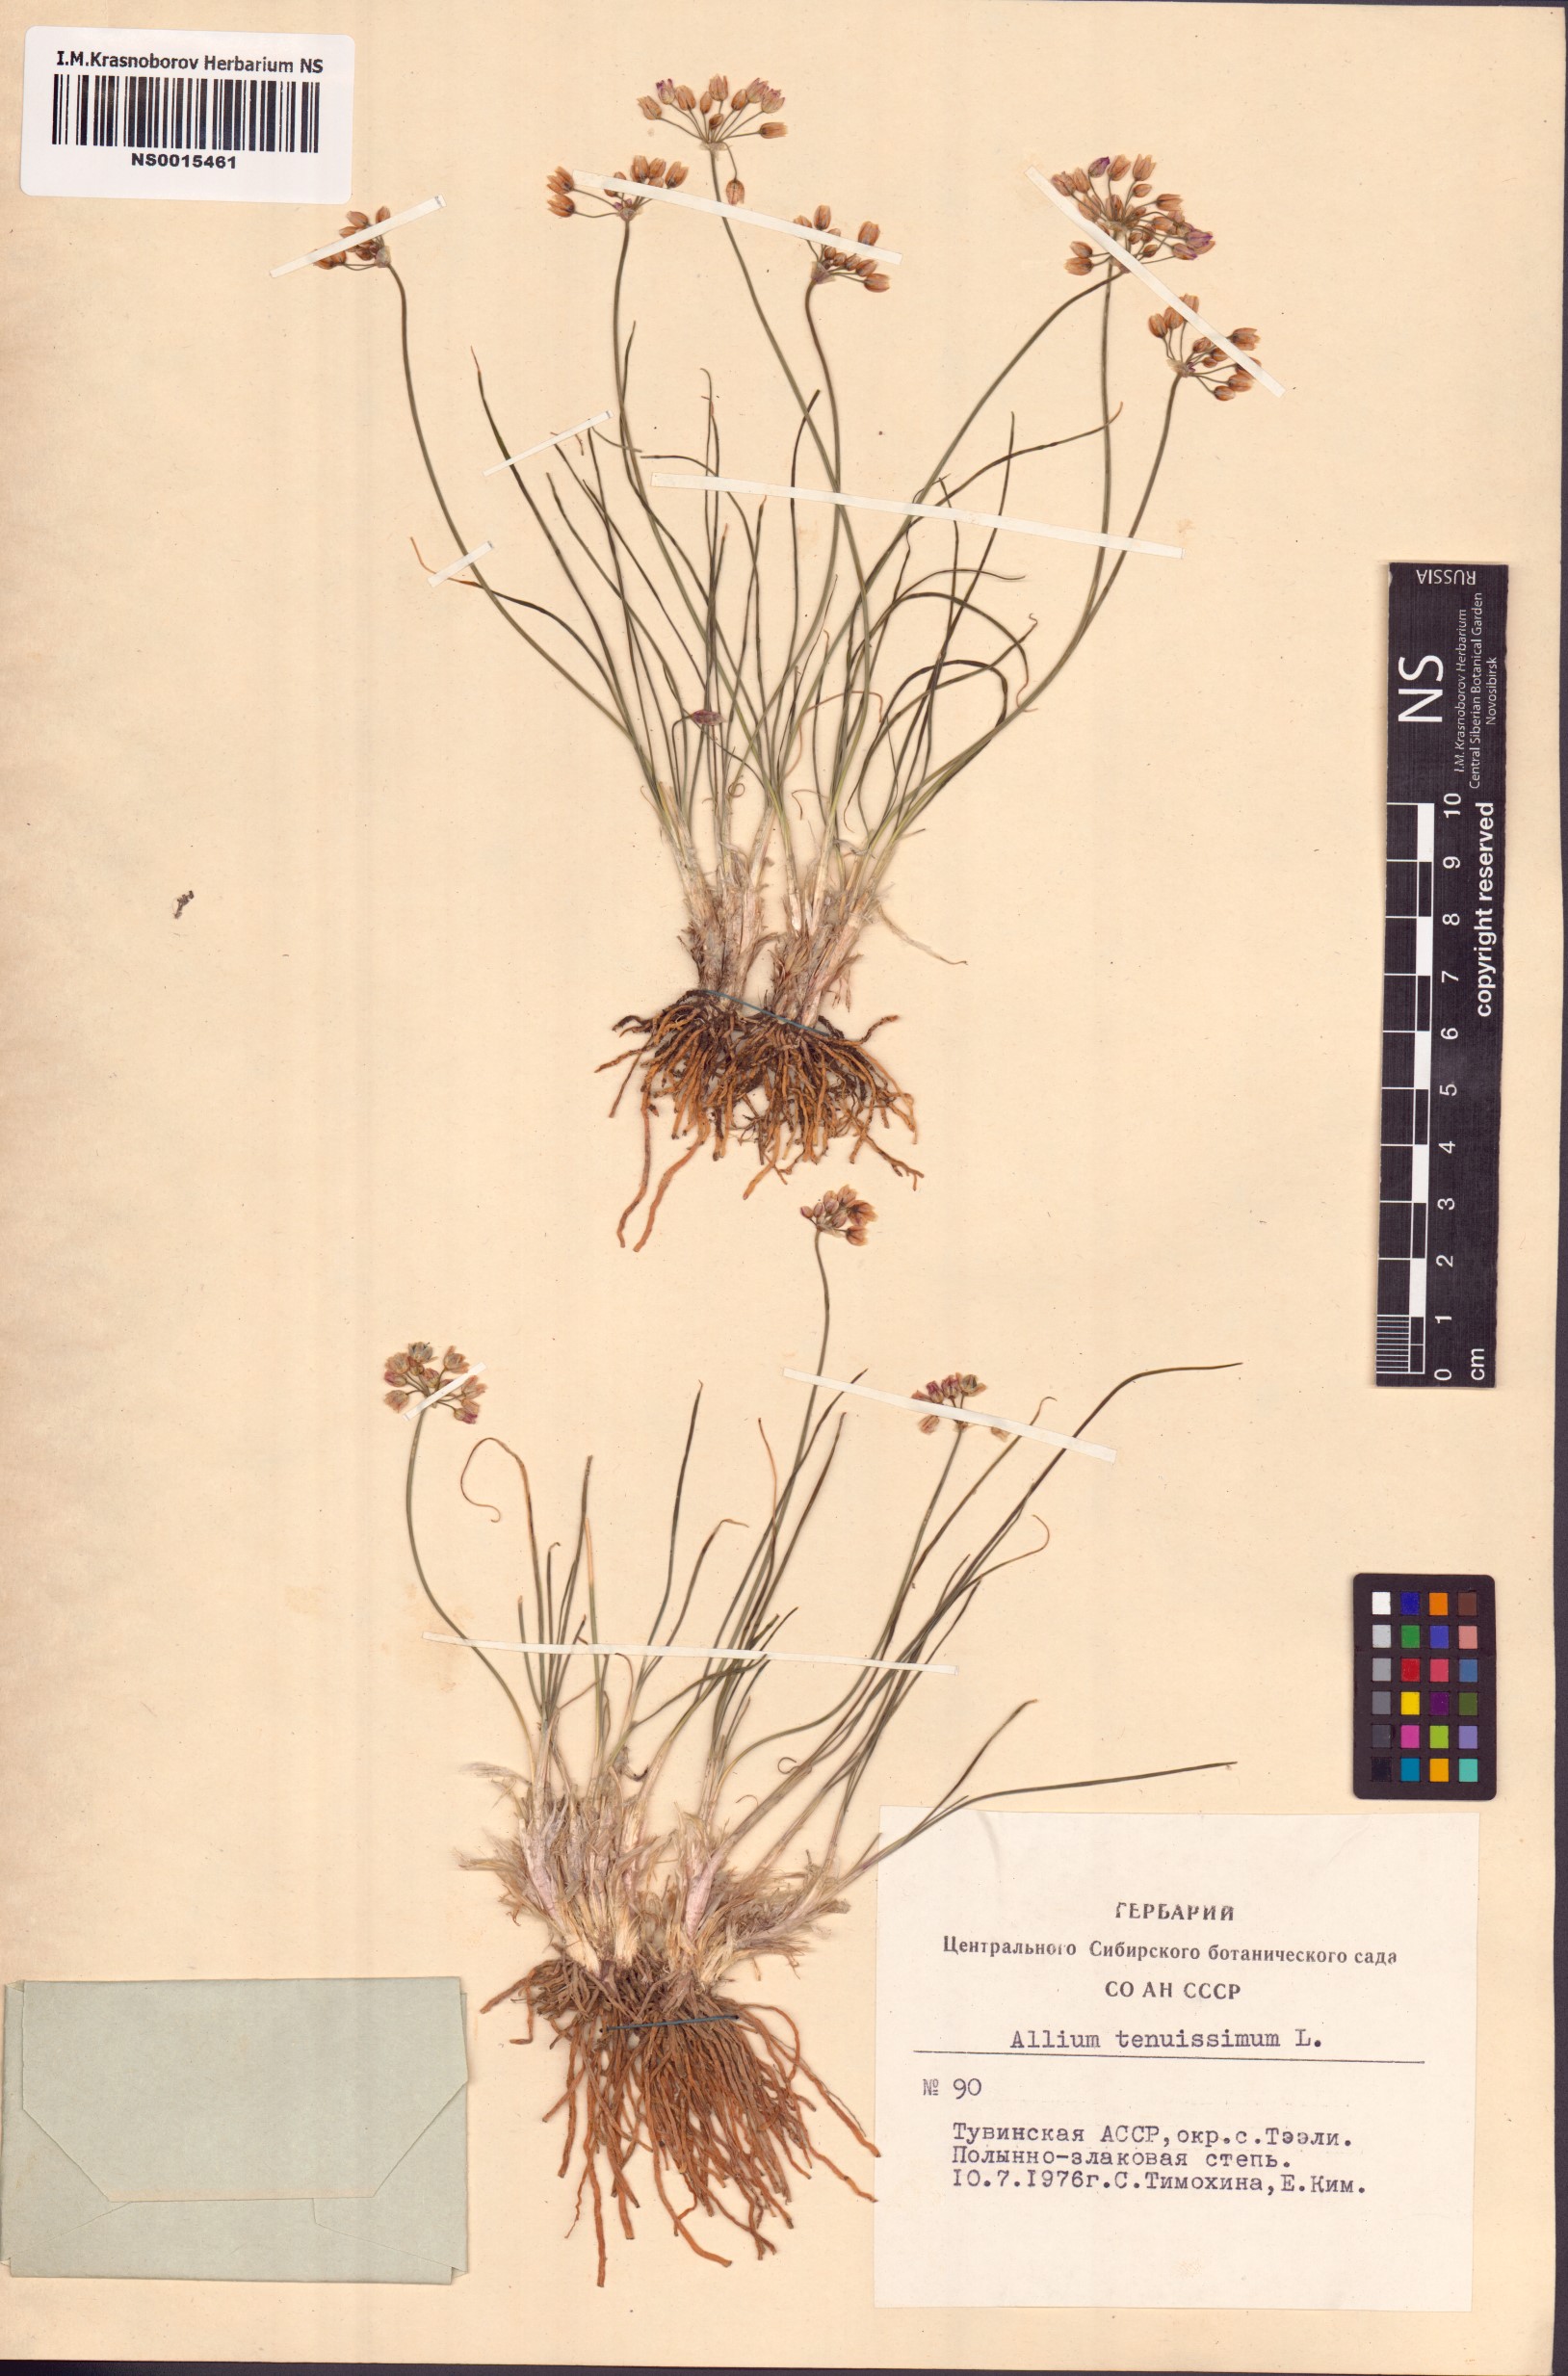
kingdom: Plantae
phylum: Tracheophyta
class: Liliopsida
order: Asparagales
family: Amaryllidaceae
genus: Allium
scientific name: Allium tenuissimum
